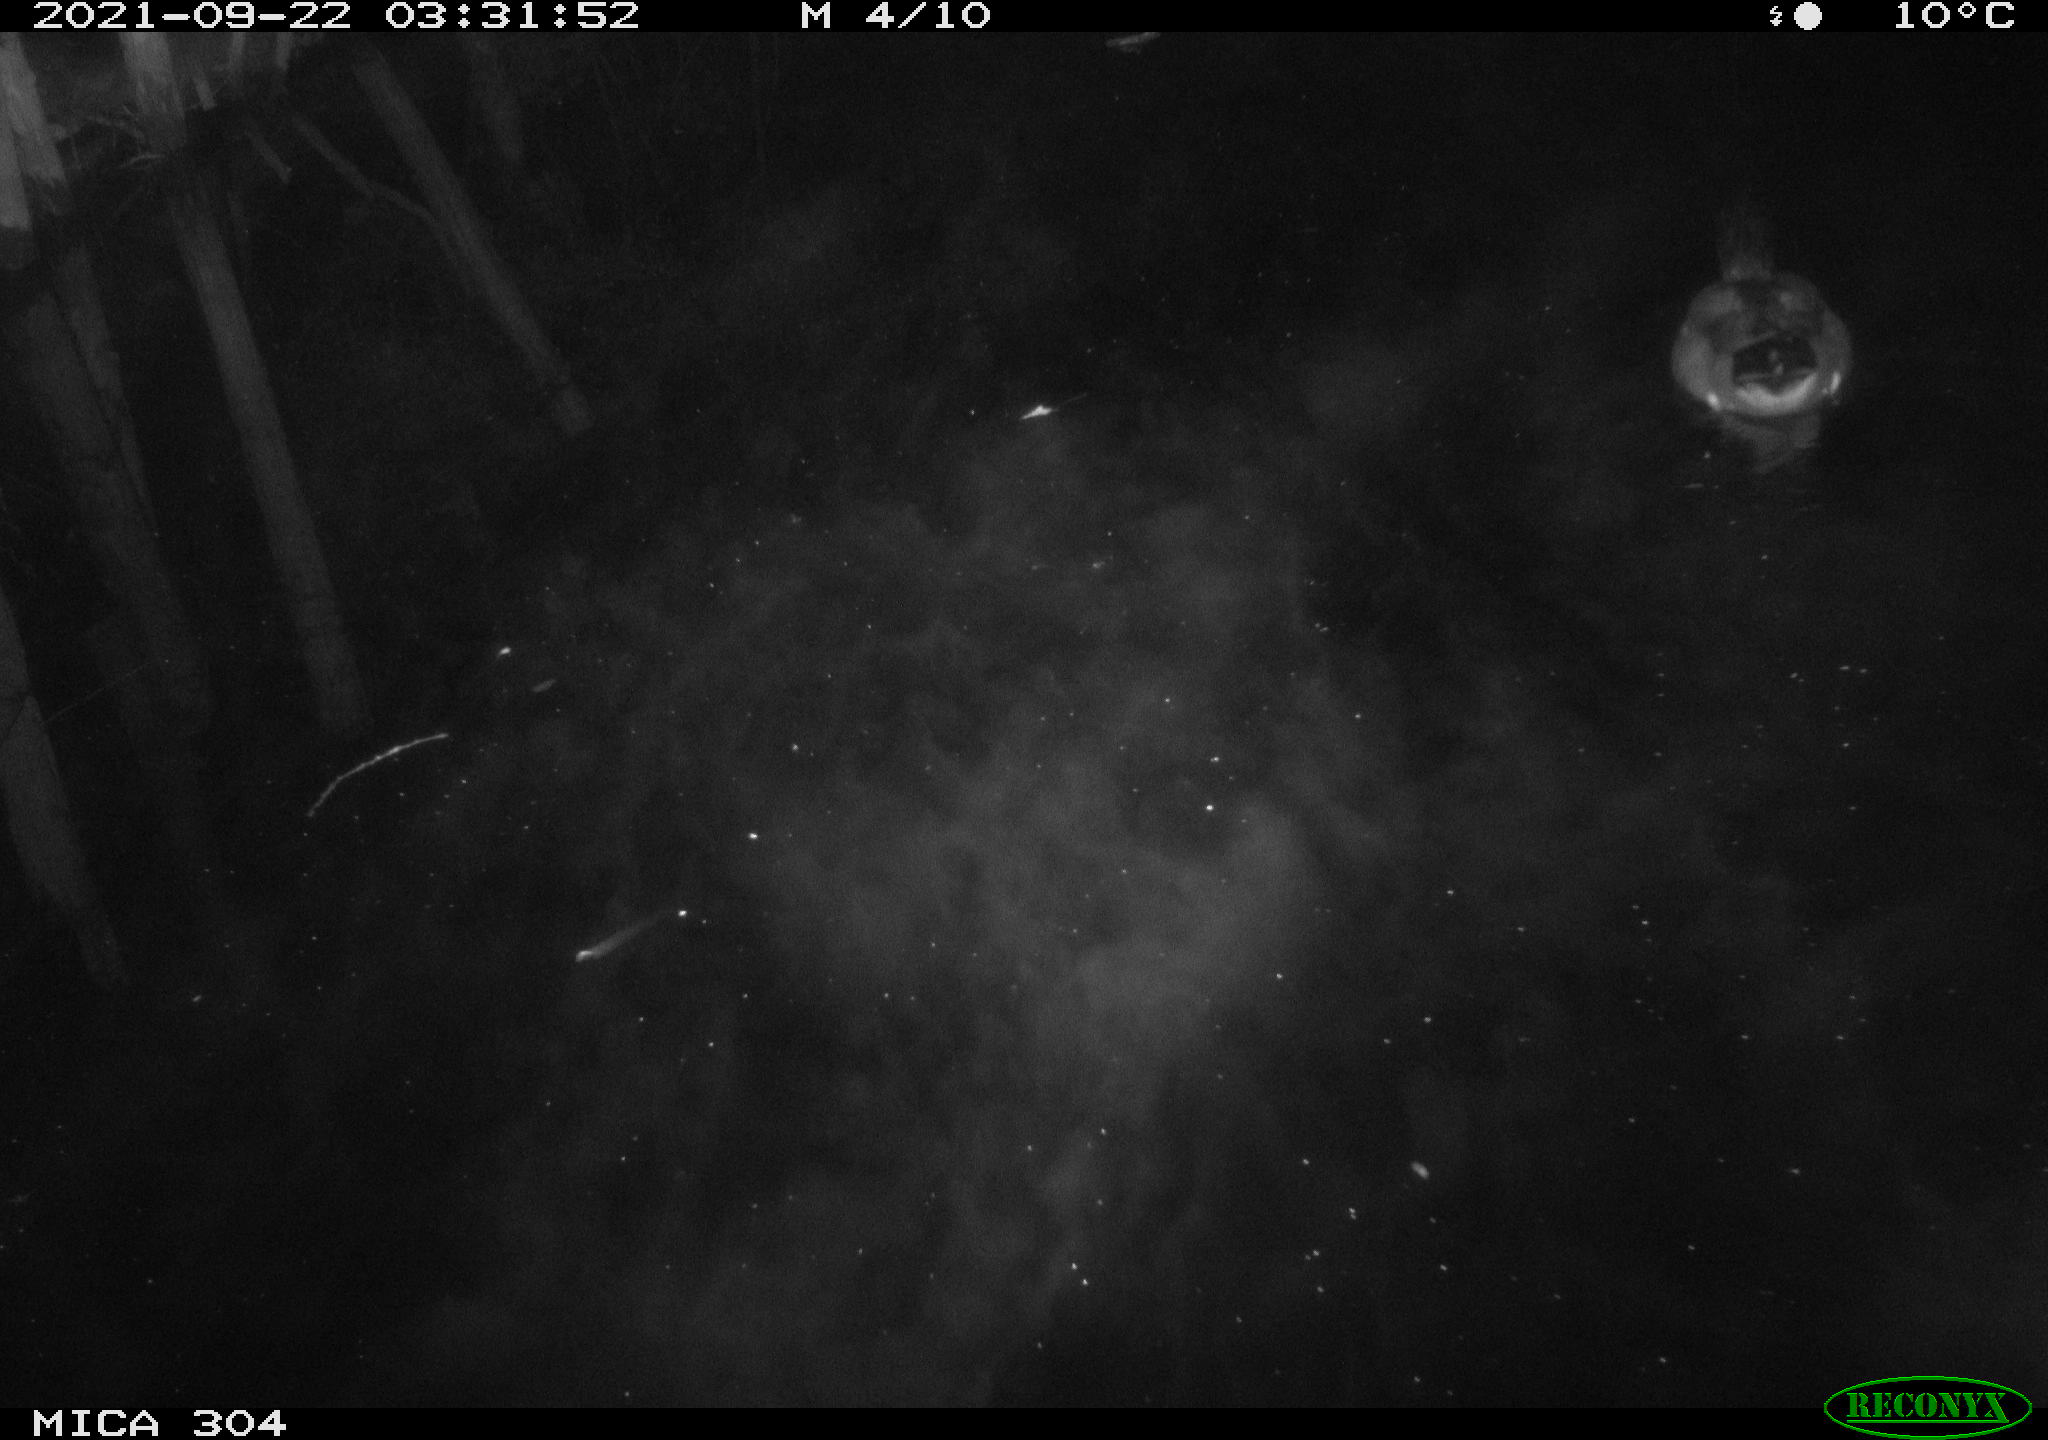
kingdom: Animalia
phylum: Chordata
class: Aves
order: Anseriformes
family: Anatidae
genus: Anas
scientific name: Anas platyrhynchos
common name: Mallard
